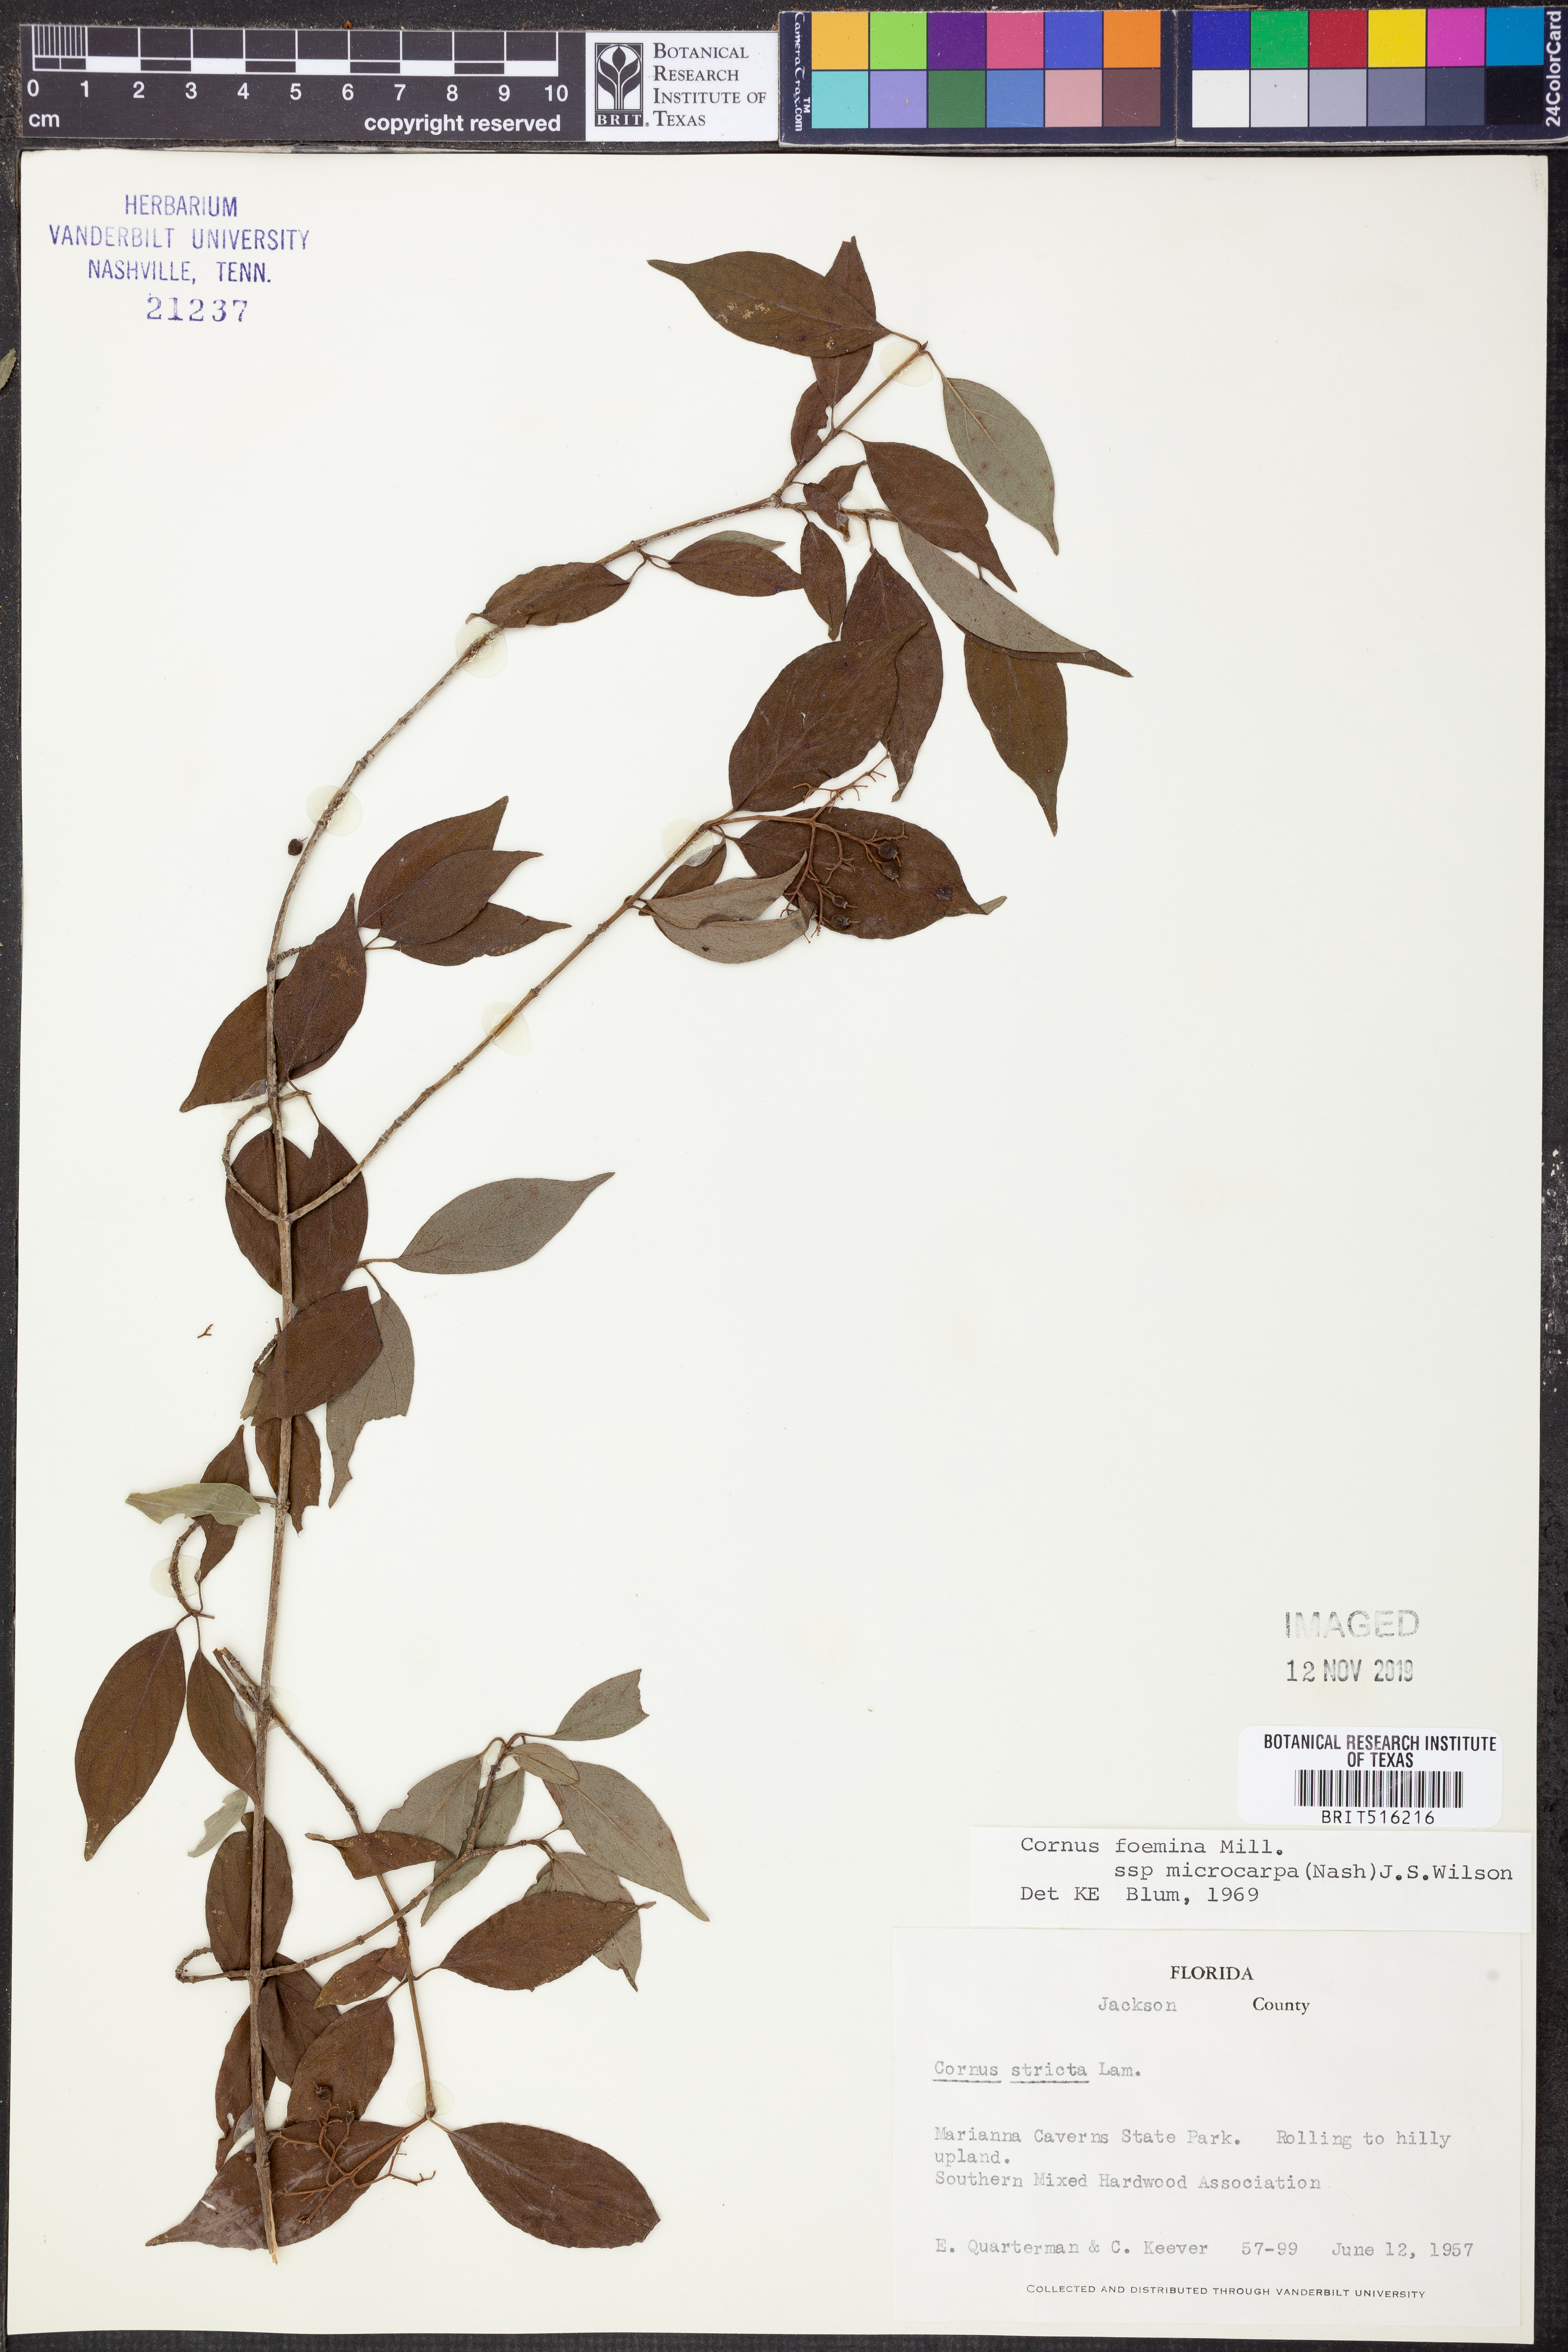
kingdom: Plantae
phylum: Tracheophyta
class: Magnoliopsida
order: Cornales
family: Cornaceae
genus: Cornus
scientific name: Cornus asperifolia
